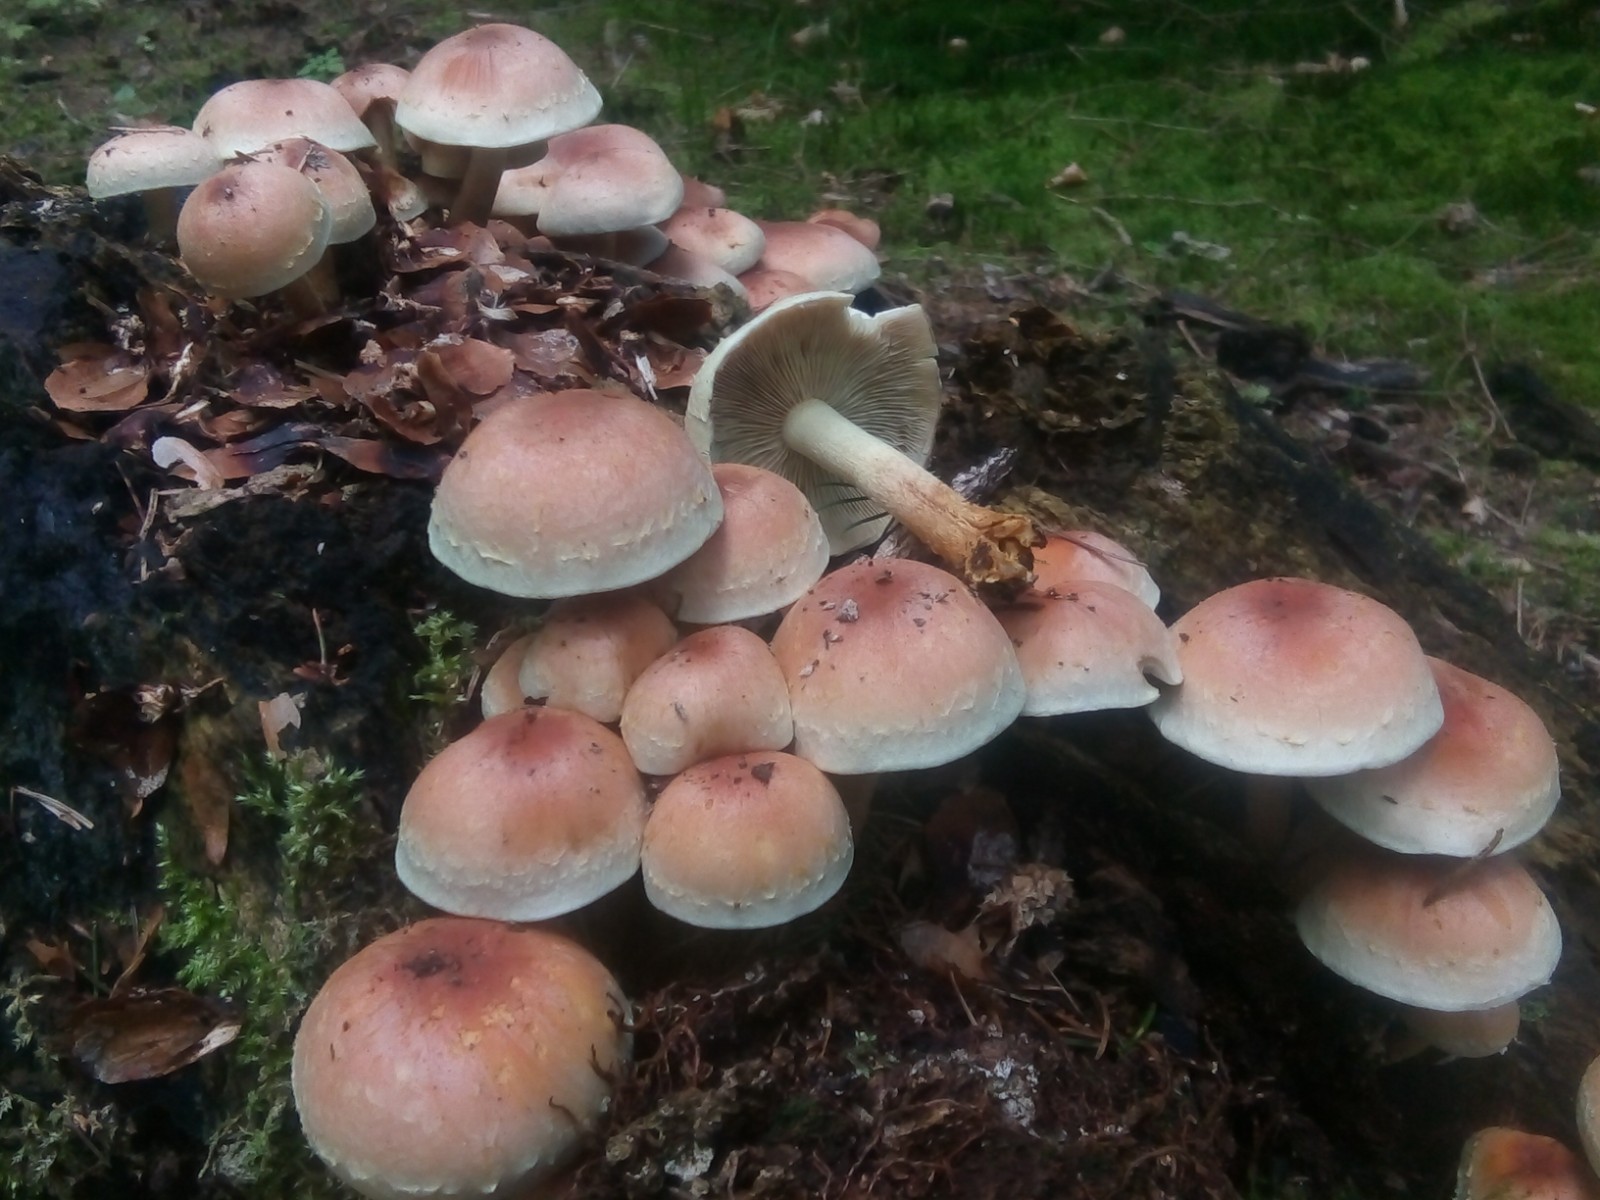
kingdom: Fungi
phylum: Basidiomycota
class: Agaricomycetes
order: Agaricales
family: Strophariaceae
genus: Hypholoma
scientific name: Hypholoma lateritium
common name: teglrød svovlhat
